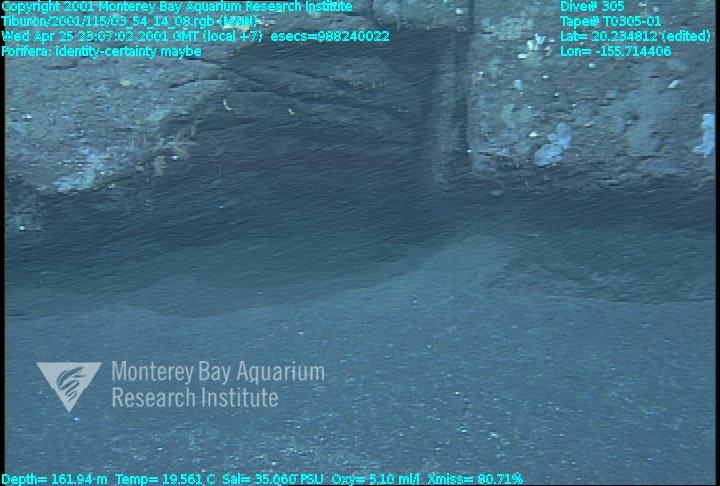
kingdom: Animalia
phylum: Porifera
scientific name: Porifera
